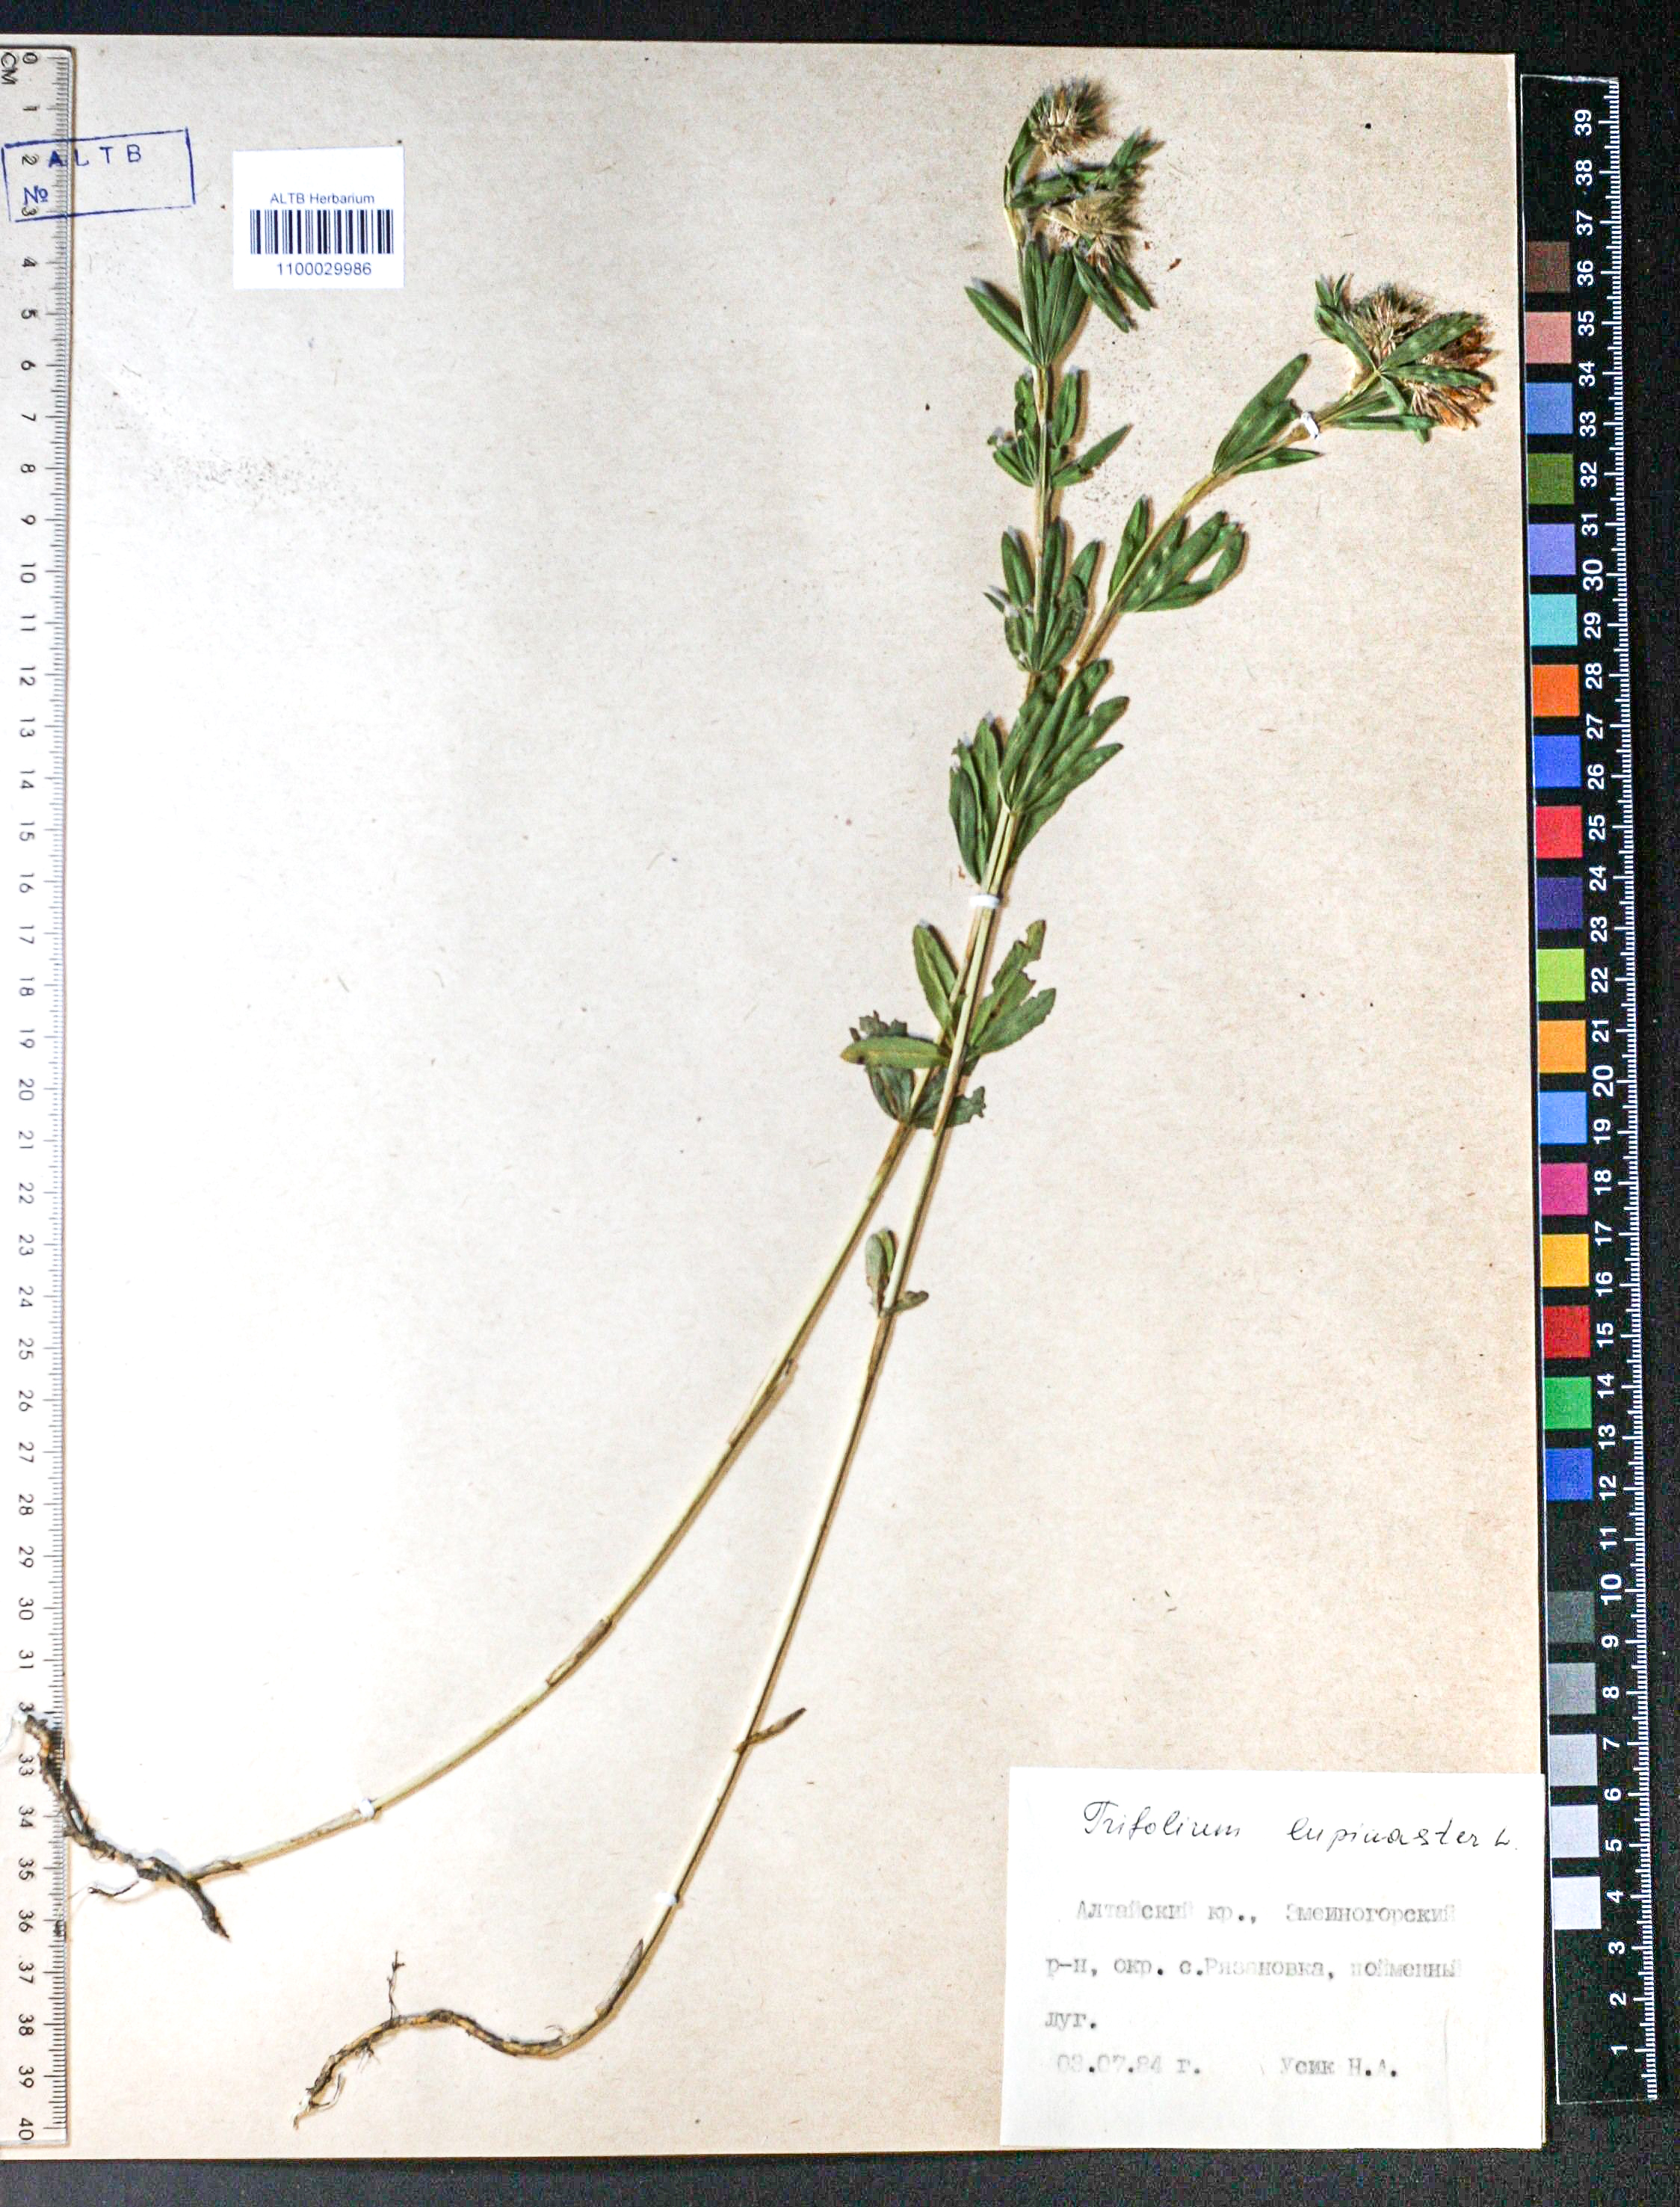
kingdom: Plantae
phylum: Tracheophyta
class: Magnoliopsida
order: Fabales
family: Fabaceae
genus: Trifolium
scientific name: Trifolium lupinaster
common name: Lupine clover
